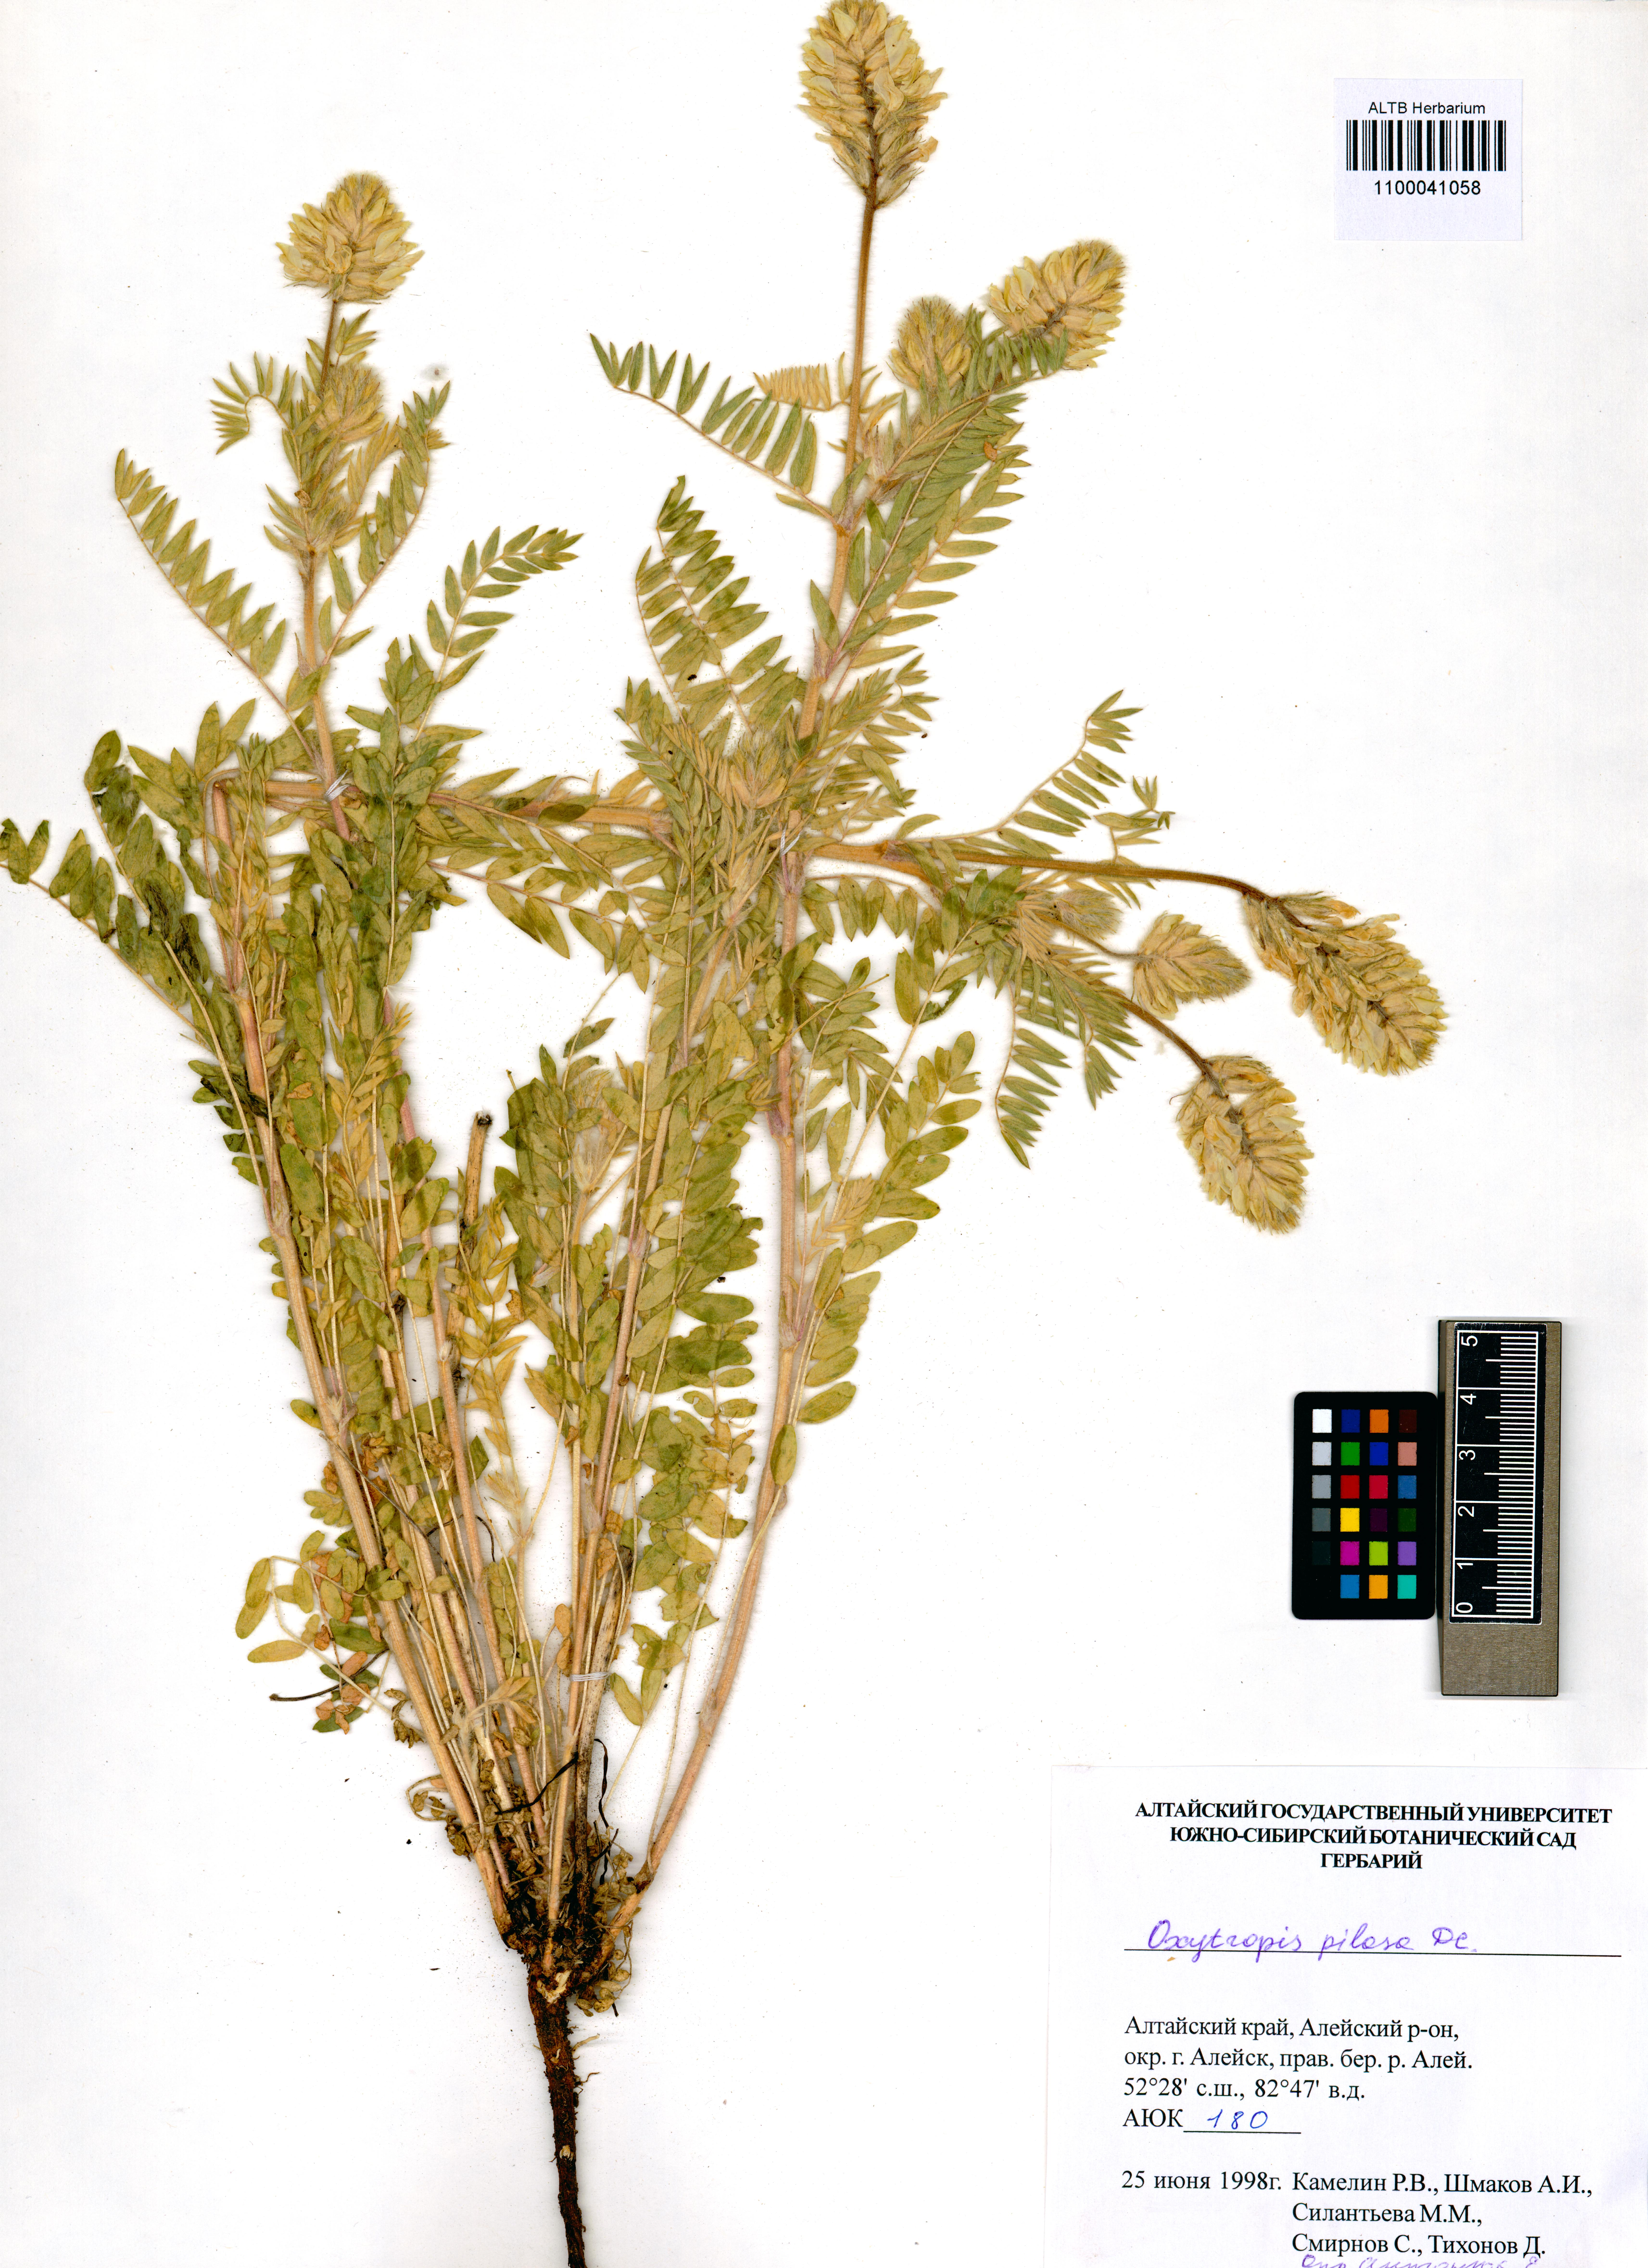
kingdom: Plantae
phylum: Tracheophyta
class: Magnoliopsida
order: Fabales
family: Fabaceae
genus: Oxytropis
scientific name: Oxytropis pilosa
